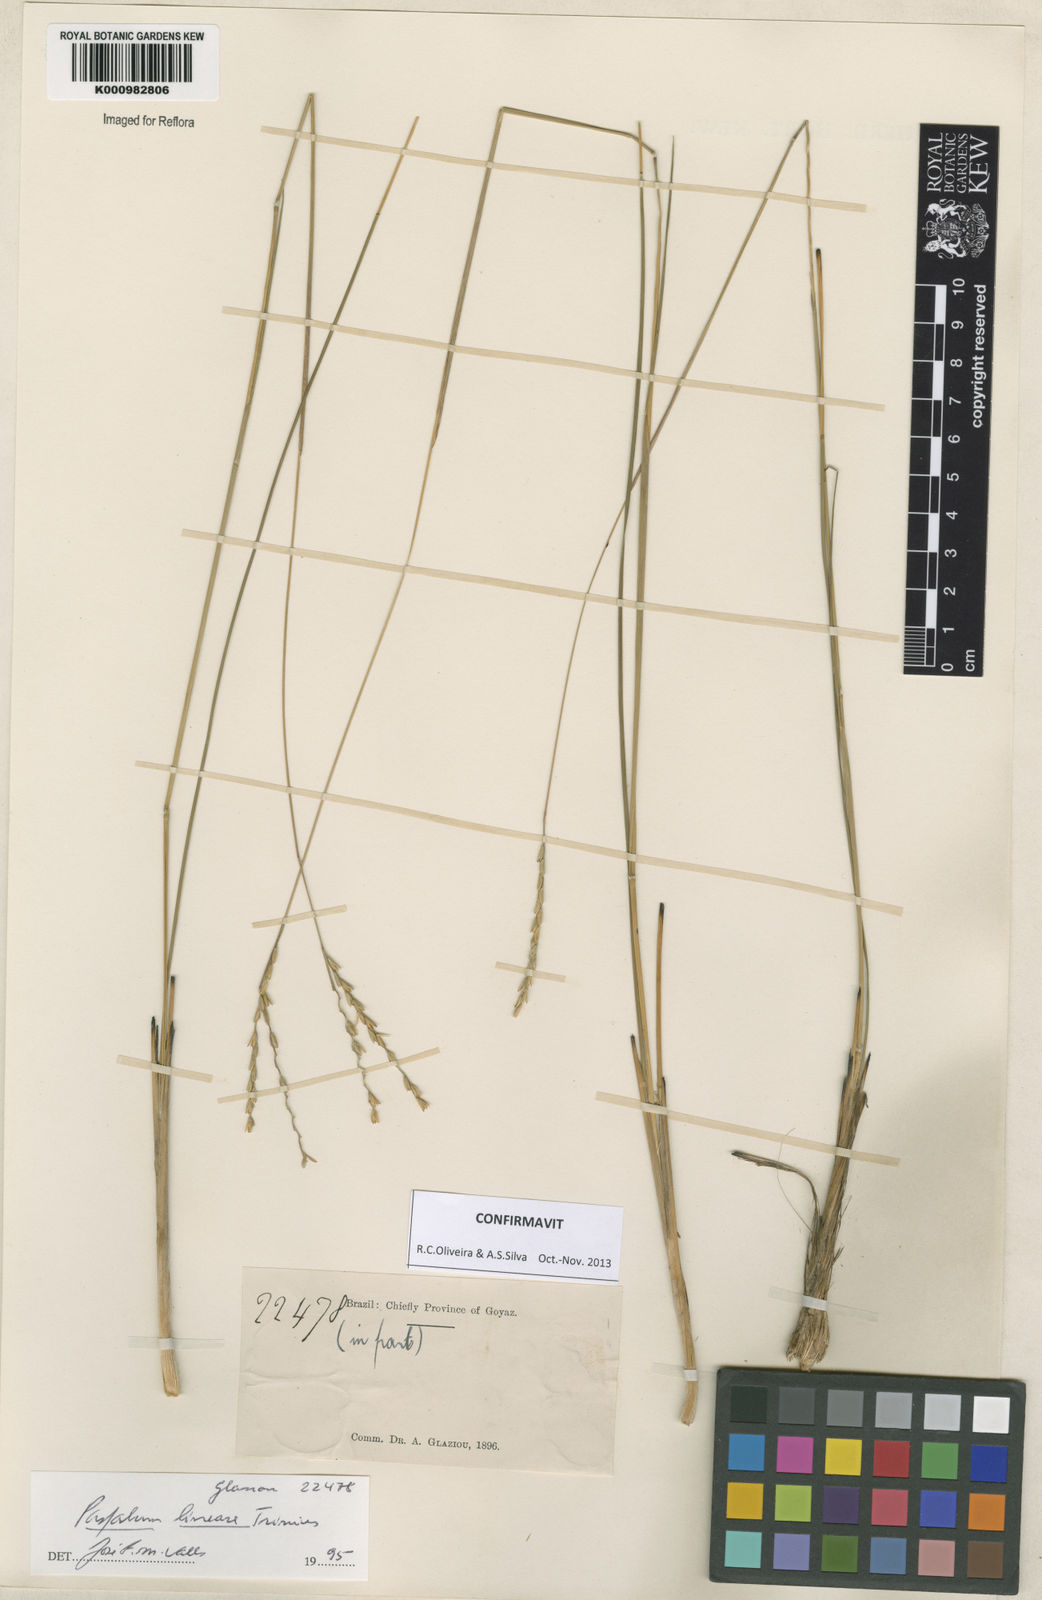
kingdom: Plantae
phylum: Tracheophyta
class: Liliopsida
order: Poales
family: Poaceae
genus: Paspalum
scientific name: Paspalum lineare
